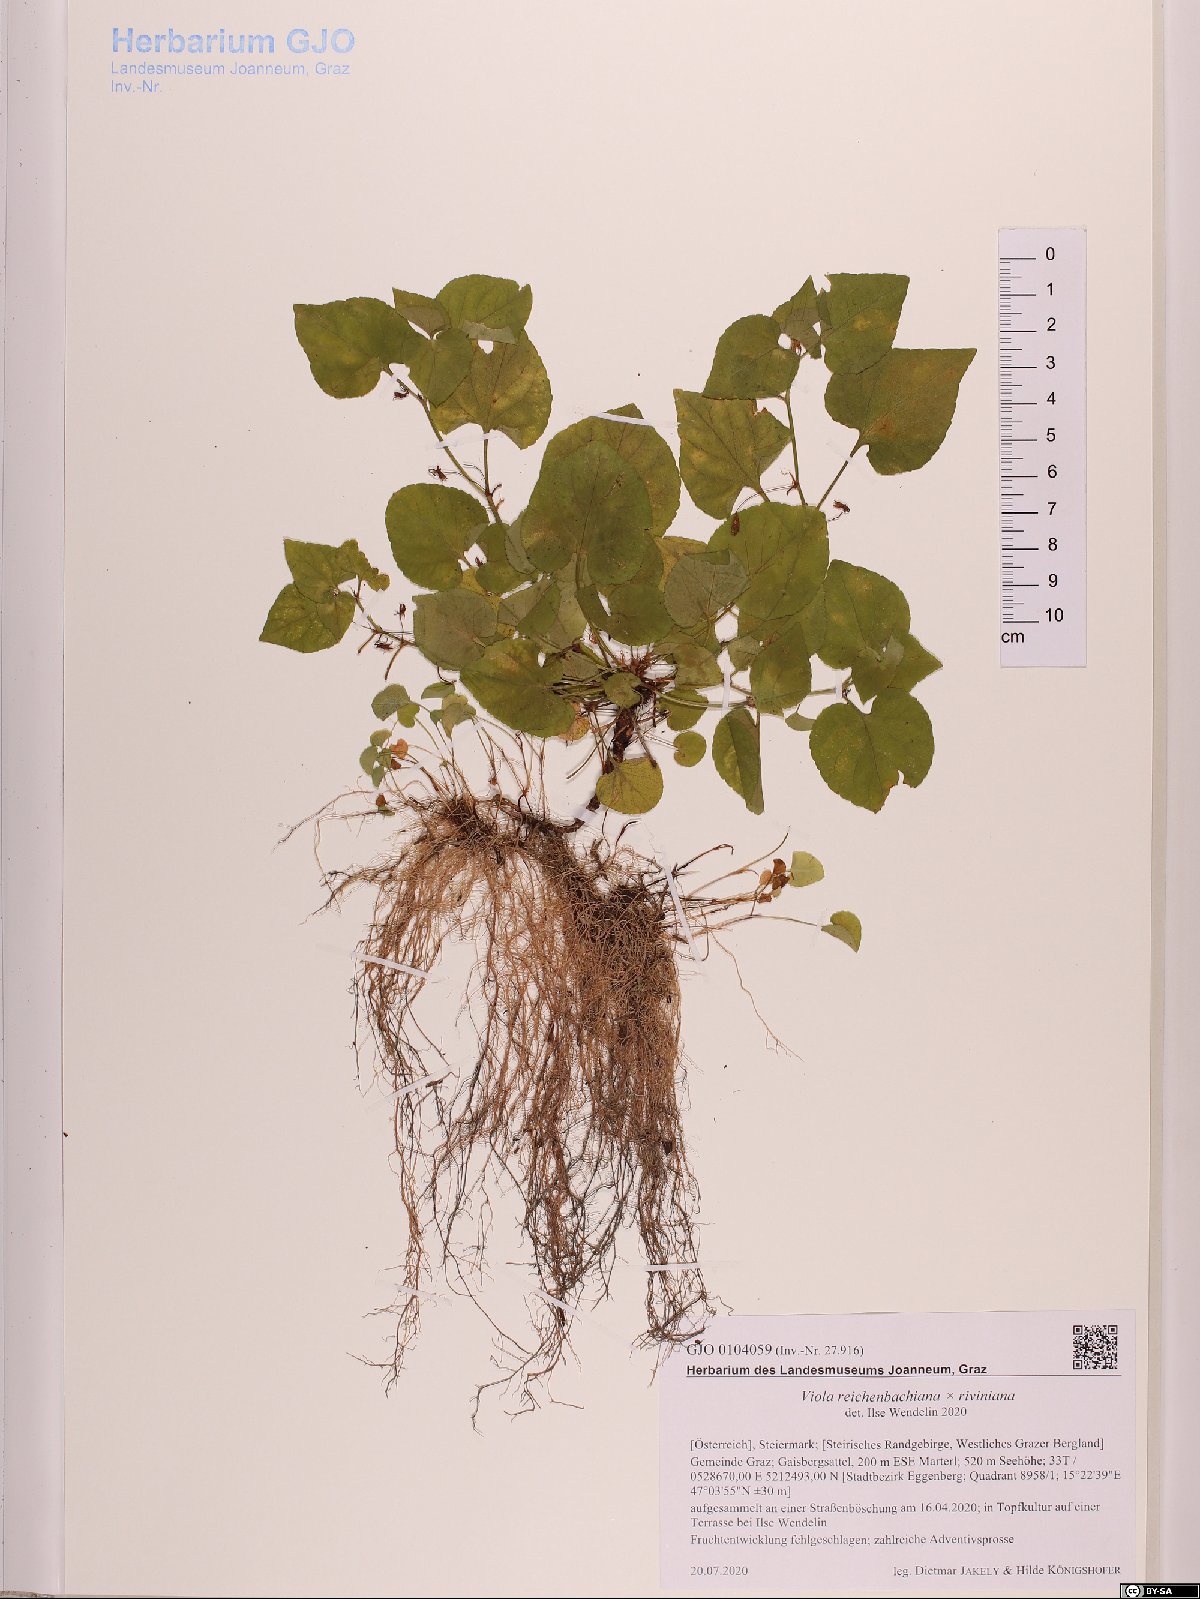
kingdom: Plantae
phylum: Tracheophyta
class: Magnoliopsida
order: Malpighiales
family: Violaceae
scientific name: Violaceae
